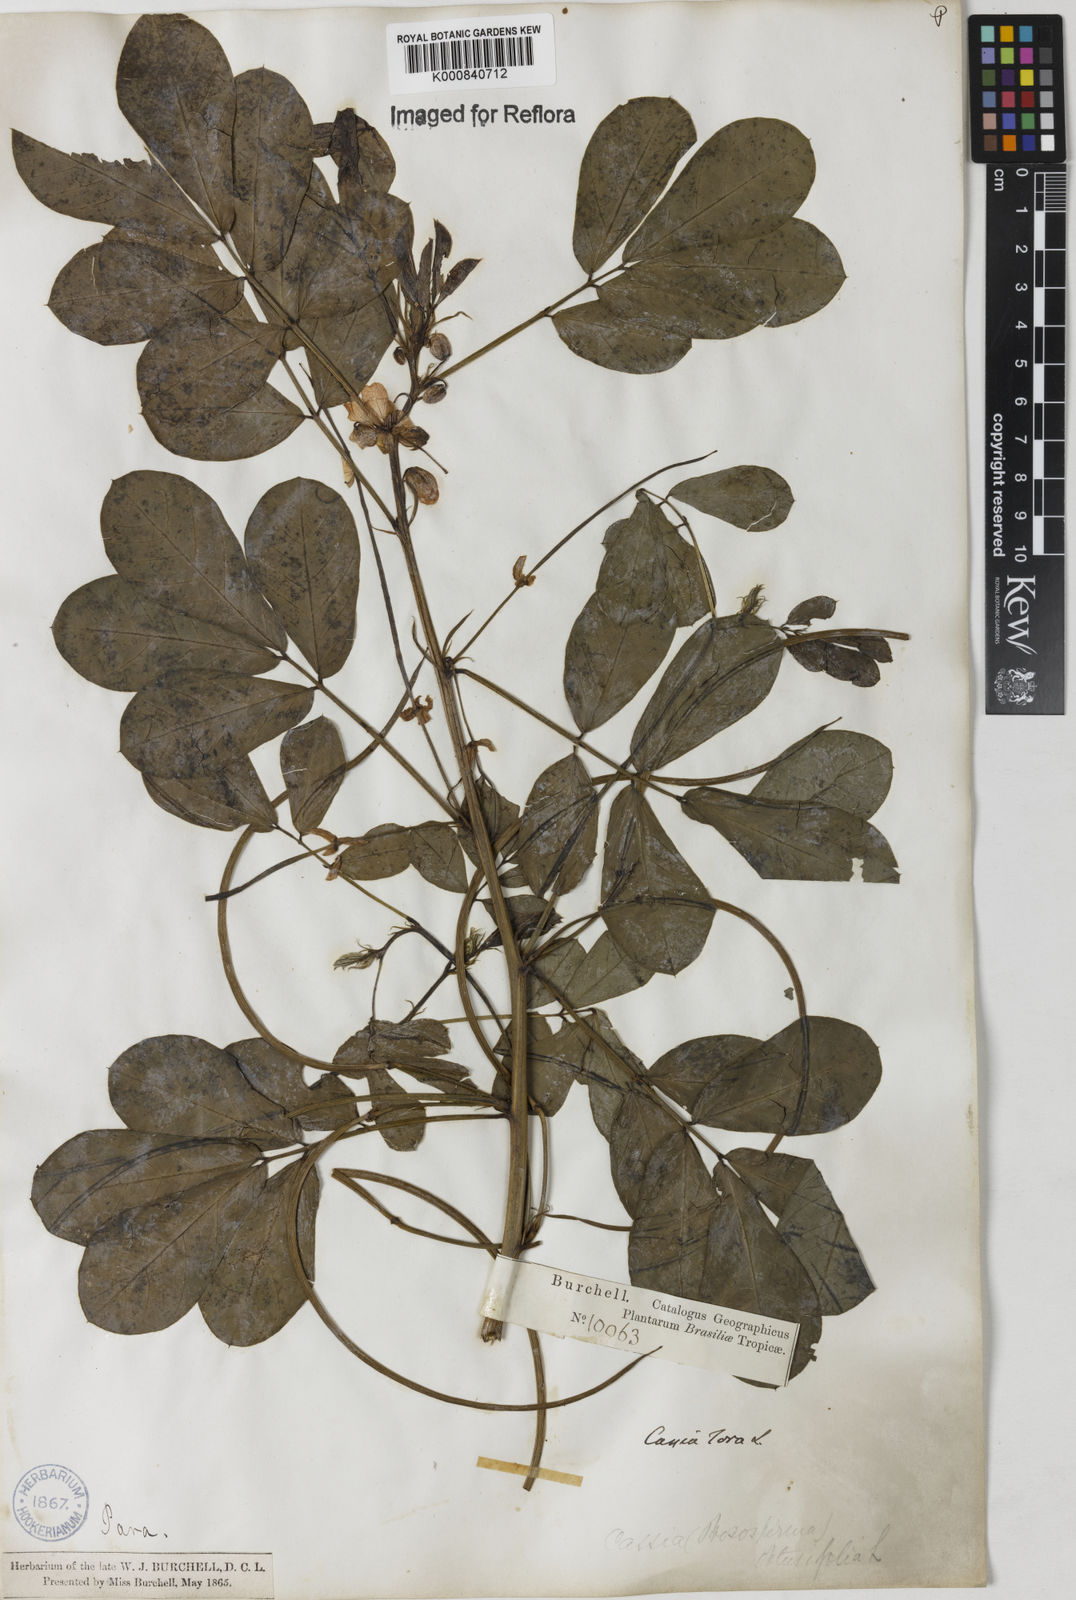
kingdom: Plantae
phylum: Tracheophyta
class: Magnoliopsida
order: Fabales
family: Fabaceae
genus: Senna
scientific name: Senna obtusifolia
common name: Java-bean
